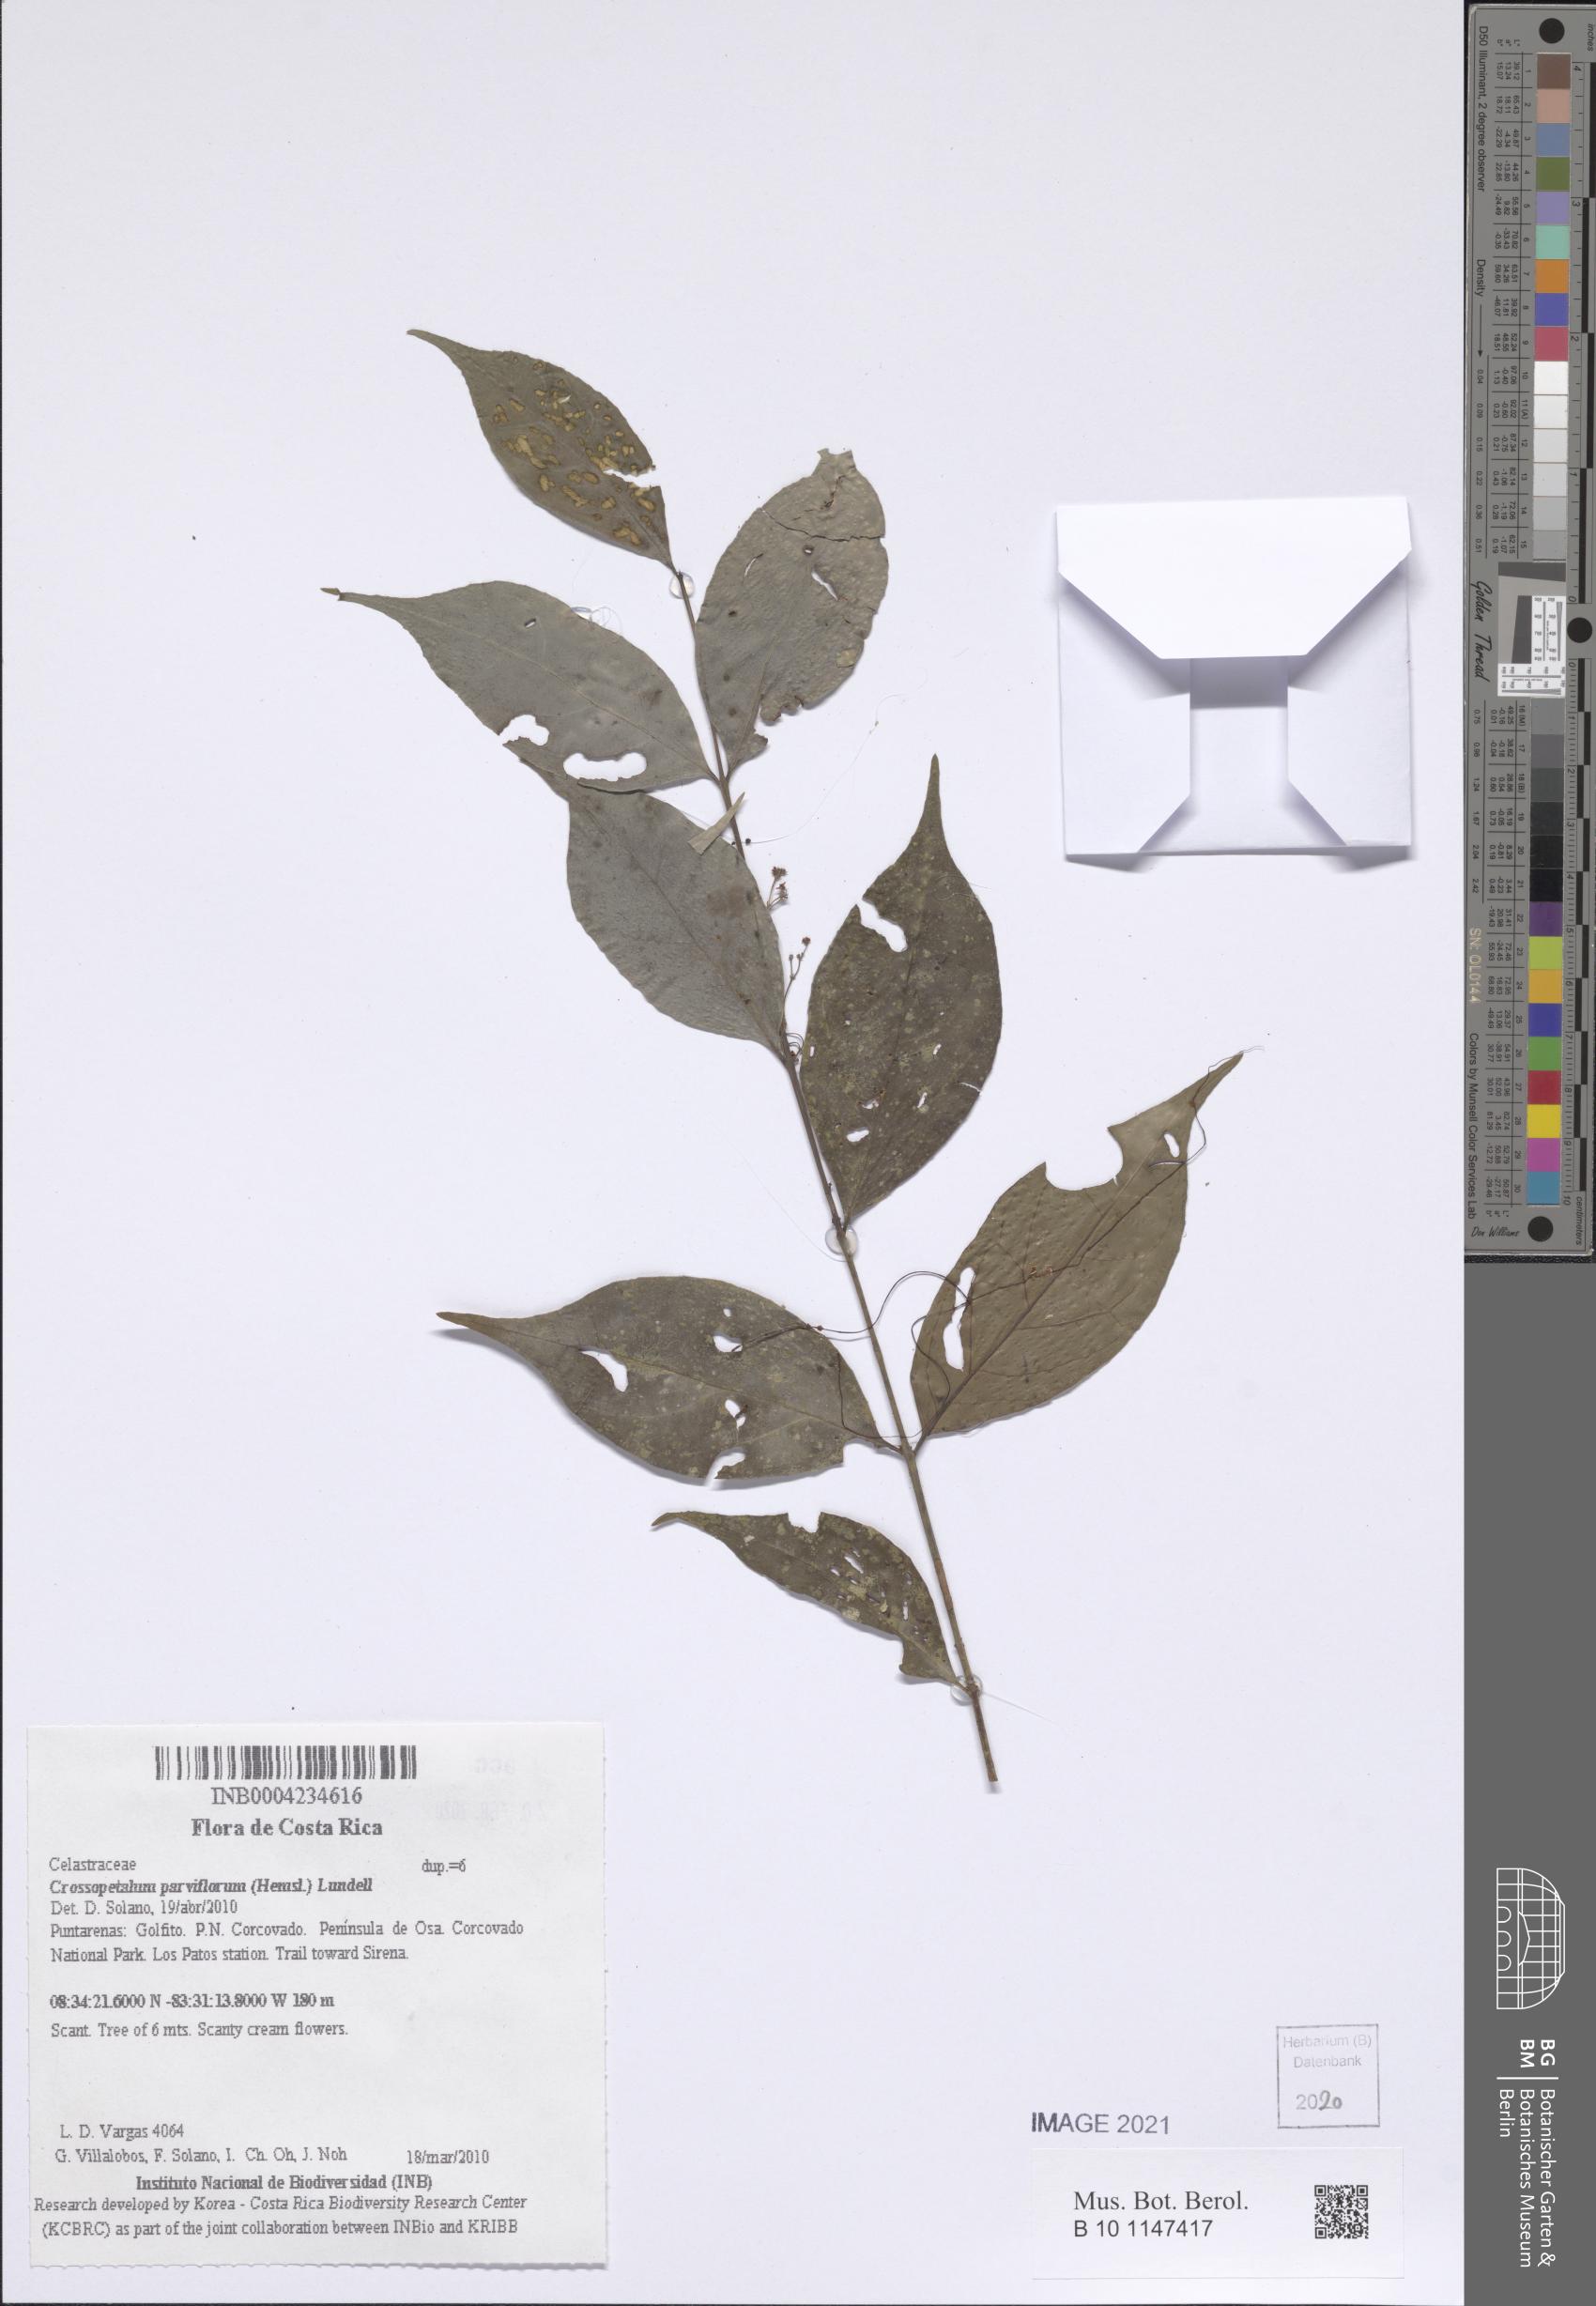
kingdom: Plantae
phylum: Tracheophyta
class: Magnoliopsida
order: Celastrales
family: Celastraceae
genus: Crossopetalum
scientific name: Crossopetalum parviflorum
